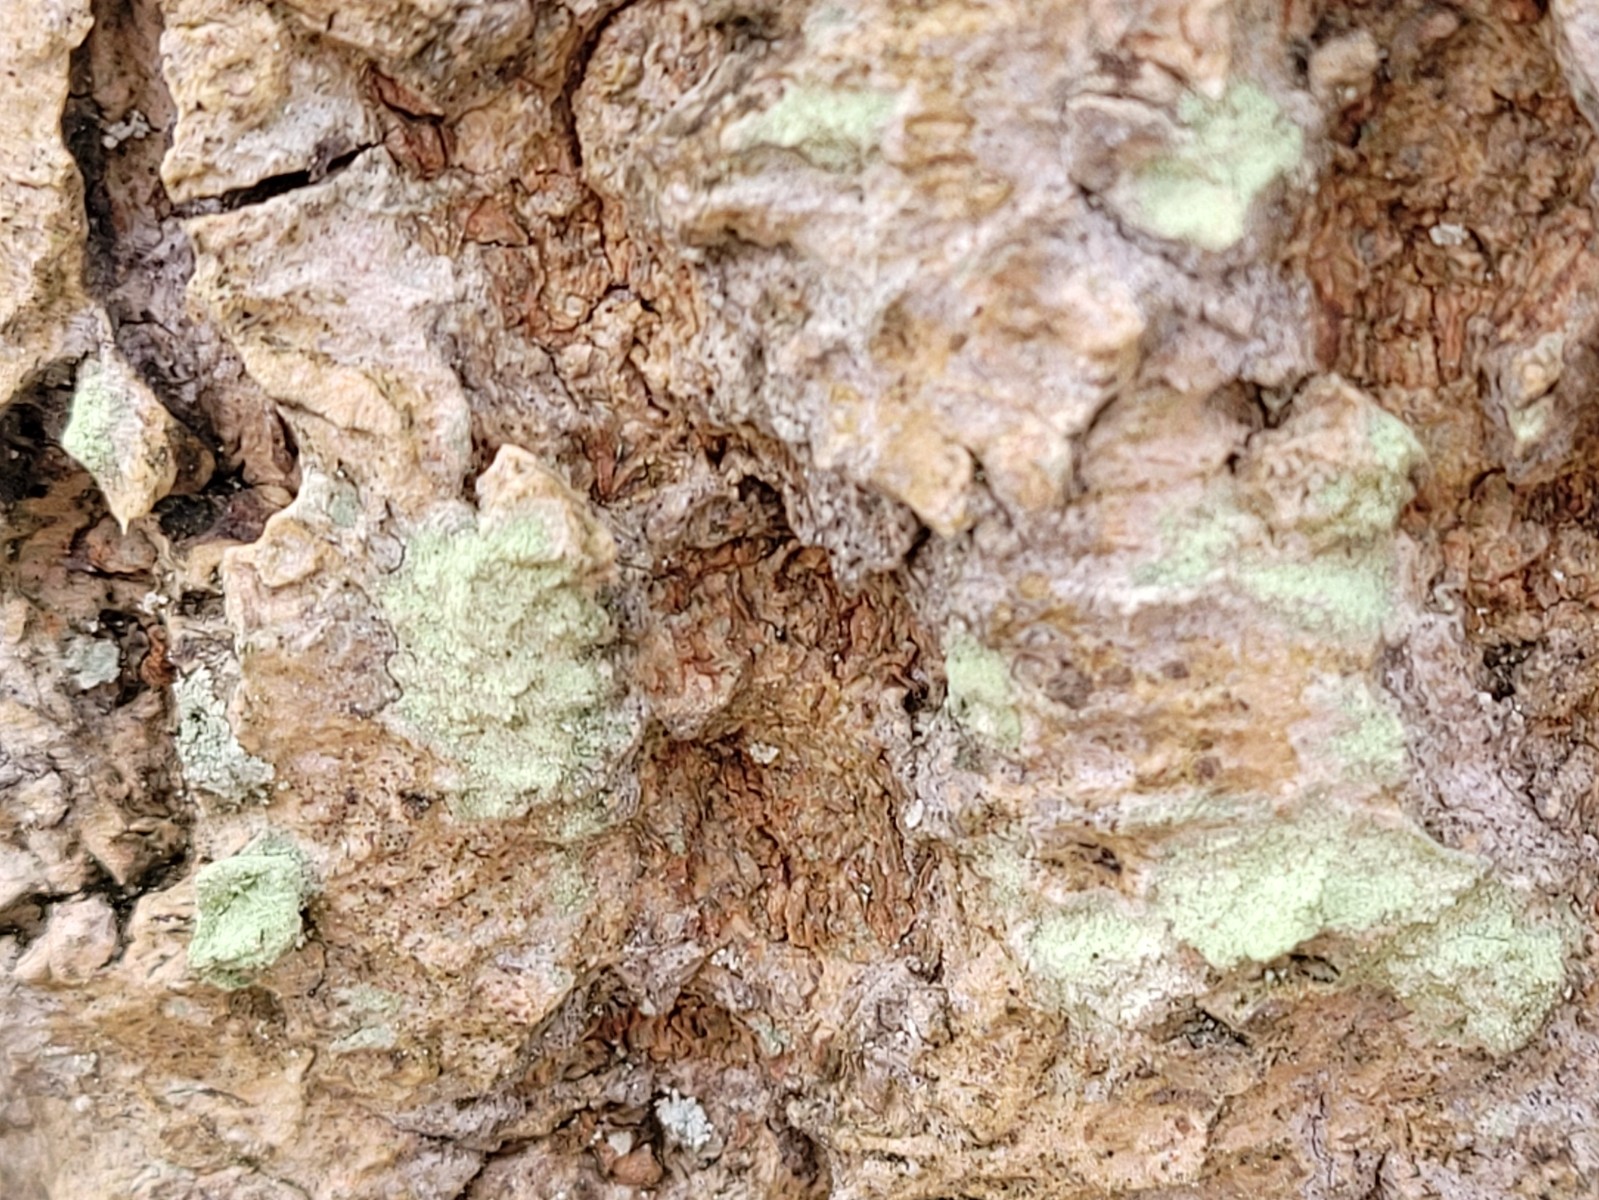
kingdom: Fungi
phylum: Ascomycota
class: Lecanoromycetes
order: Lecanorales
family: Lecanoraceae
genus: Lecanora
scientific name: Lecanora expallens
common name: bleggul kantskivelav
